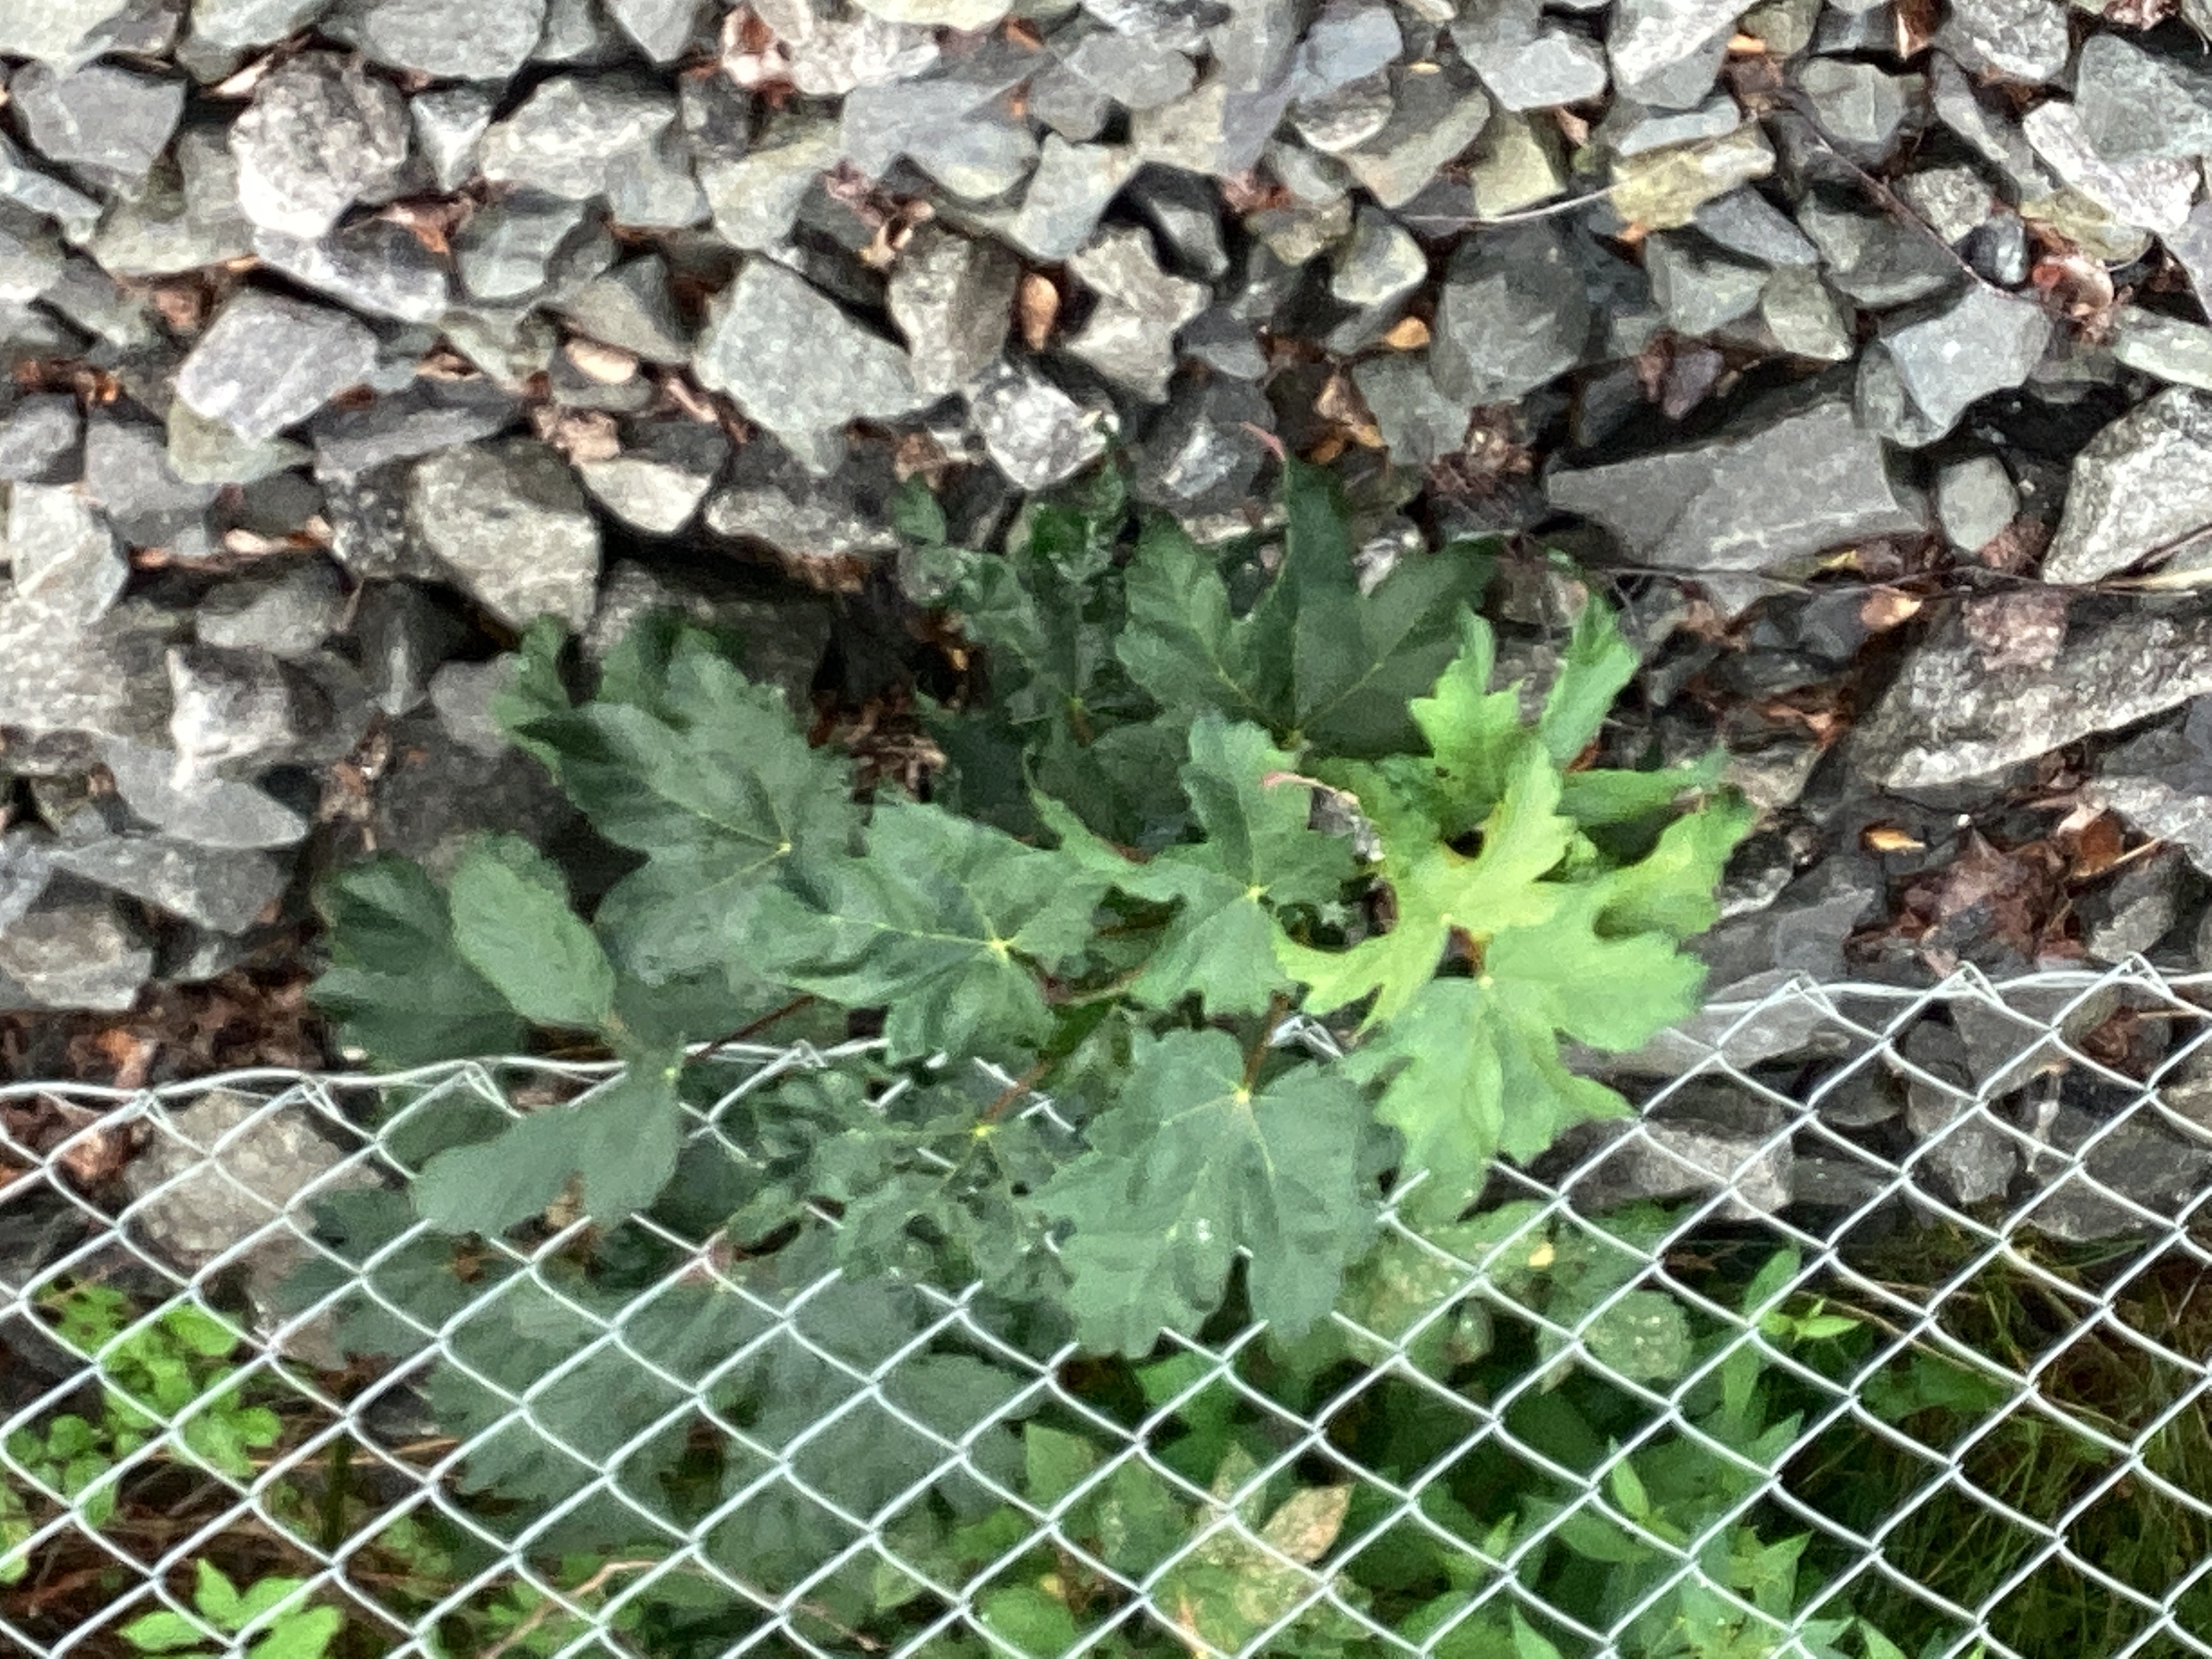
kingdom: Plantae
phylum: Tracheophyta
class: Magnoliopsida
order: Sapindales
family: Sapindaceae
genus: Acer
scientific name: Acer pseudoplatanus
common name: platanlønn
